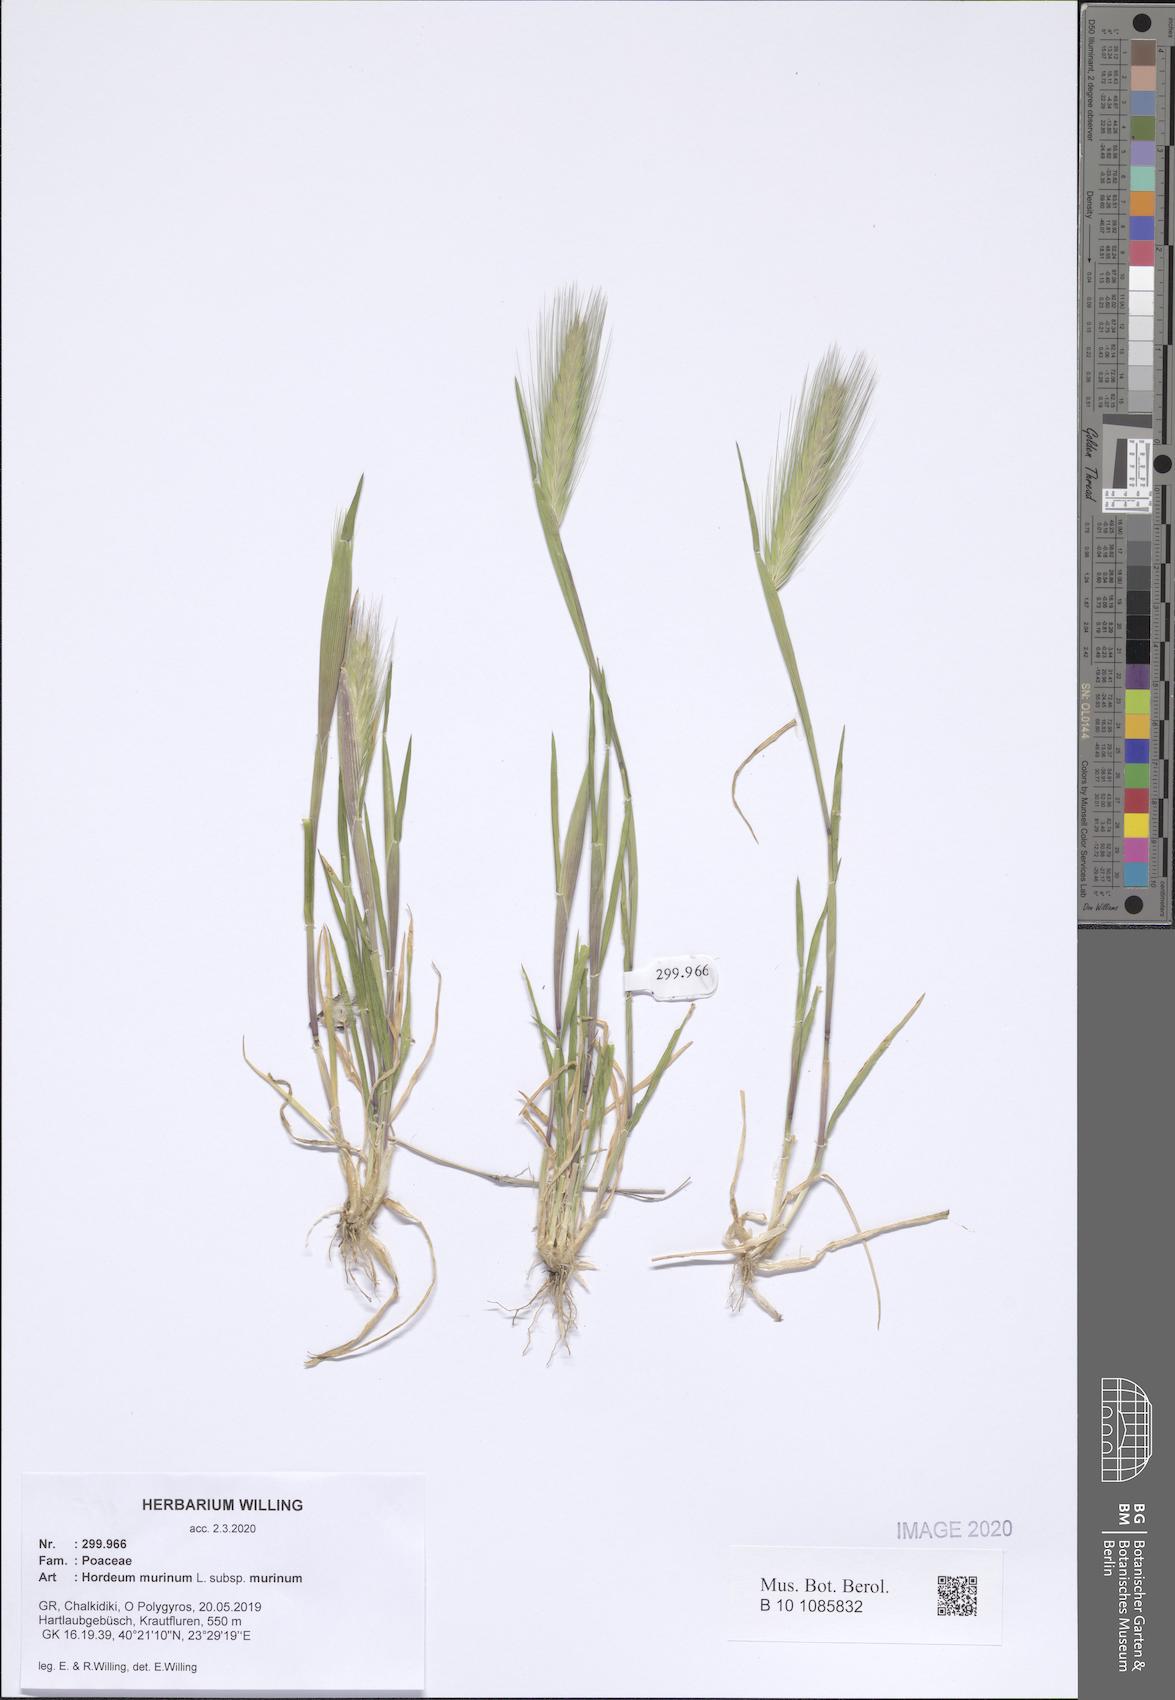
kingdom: Plantae
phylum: Tracheophyta
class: Liliopsida
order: Poales
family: Poaceae
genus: Hordeum
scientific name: Hordeum murinum
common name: Wall barley
